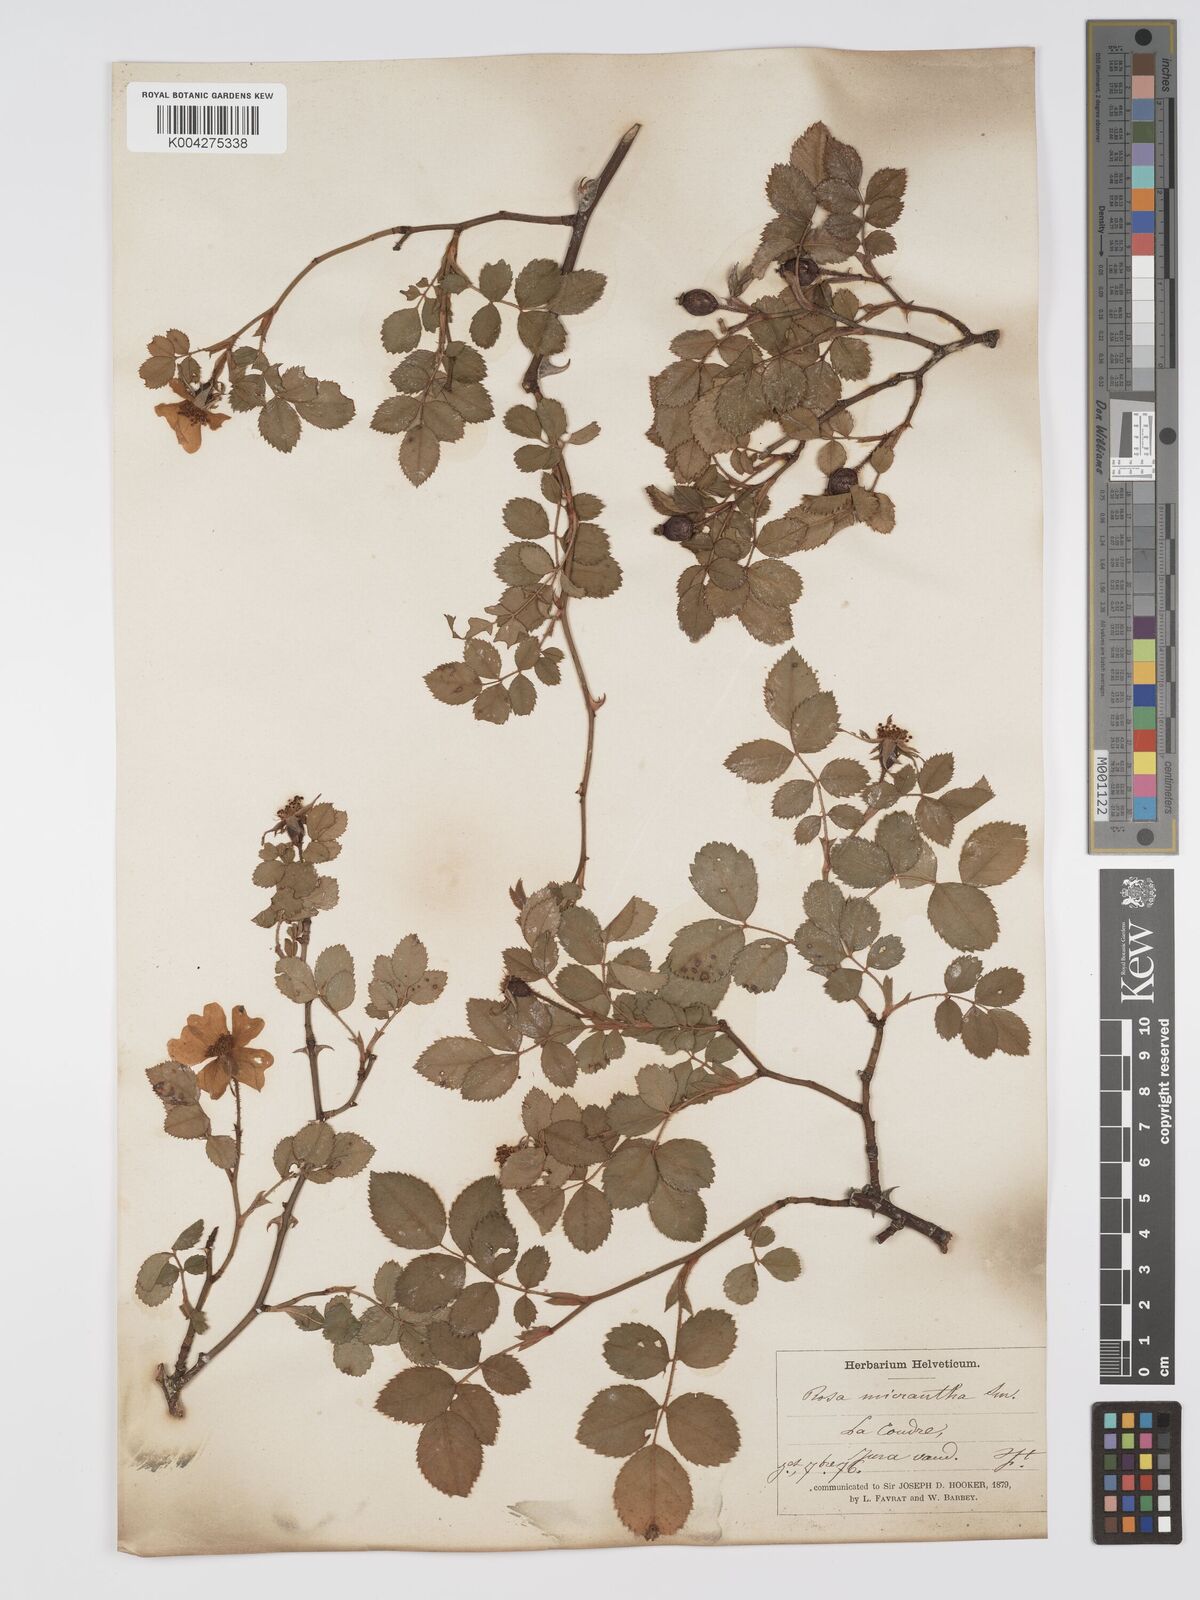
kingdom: Plantae
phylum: Tracheophyta
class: Magnoliopsida
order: Rosales
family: Rosaceae
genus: Rosa
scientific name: Rosa
